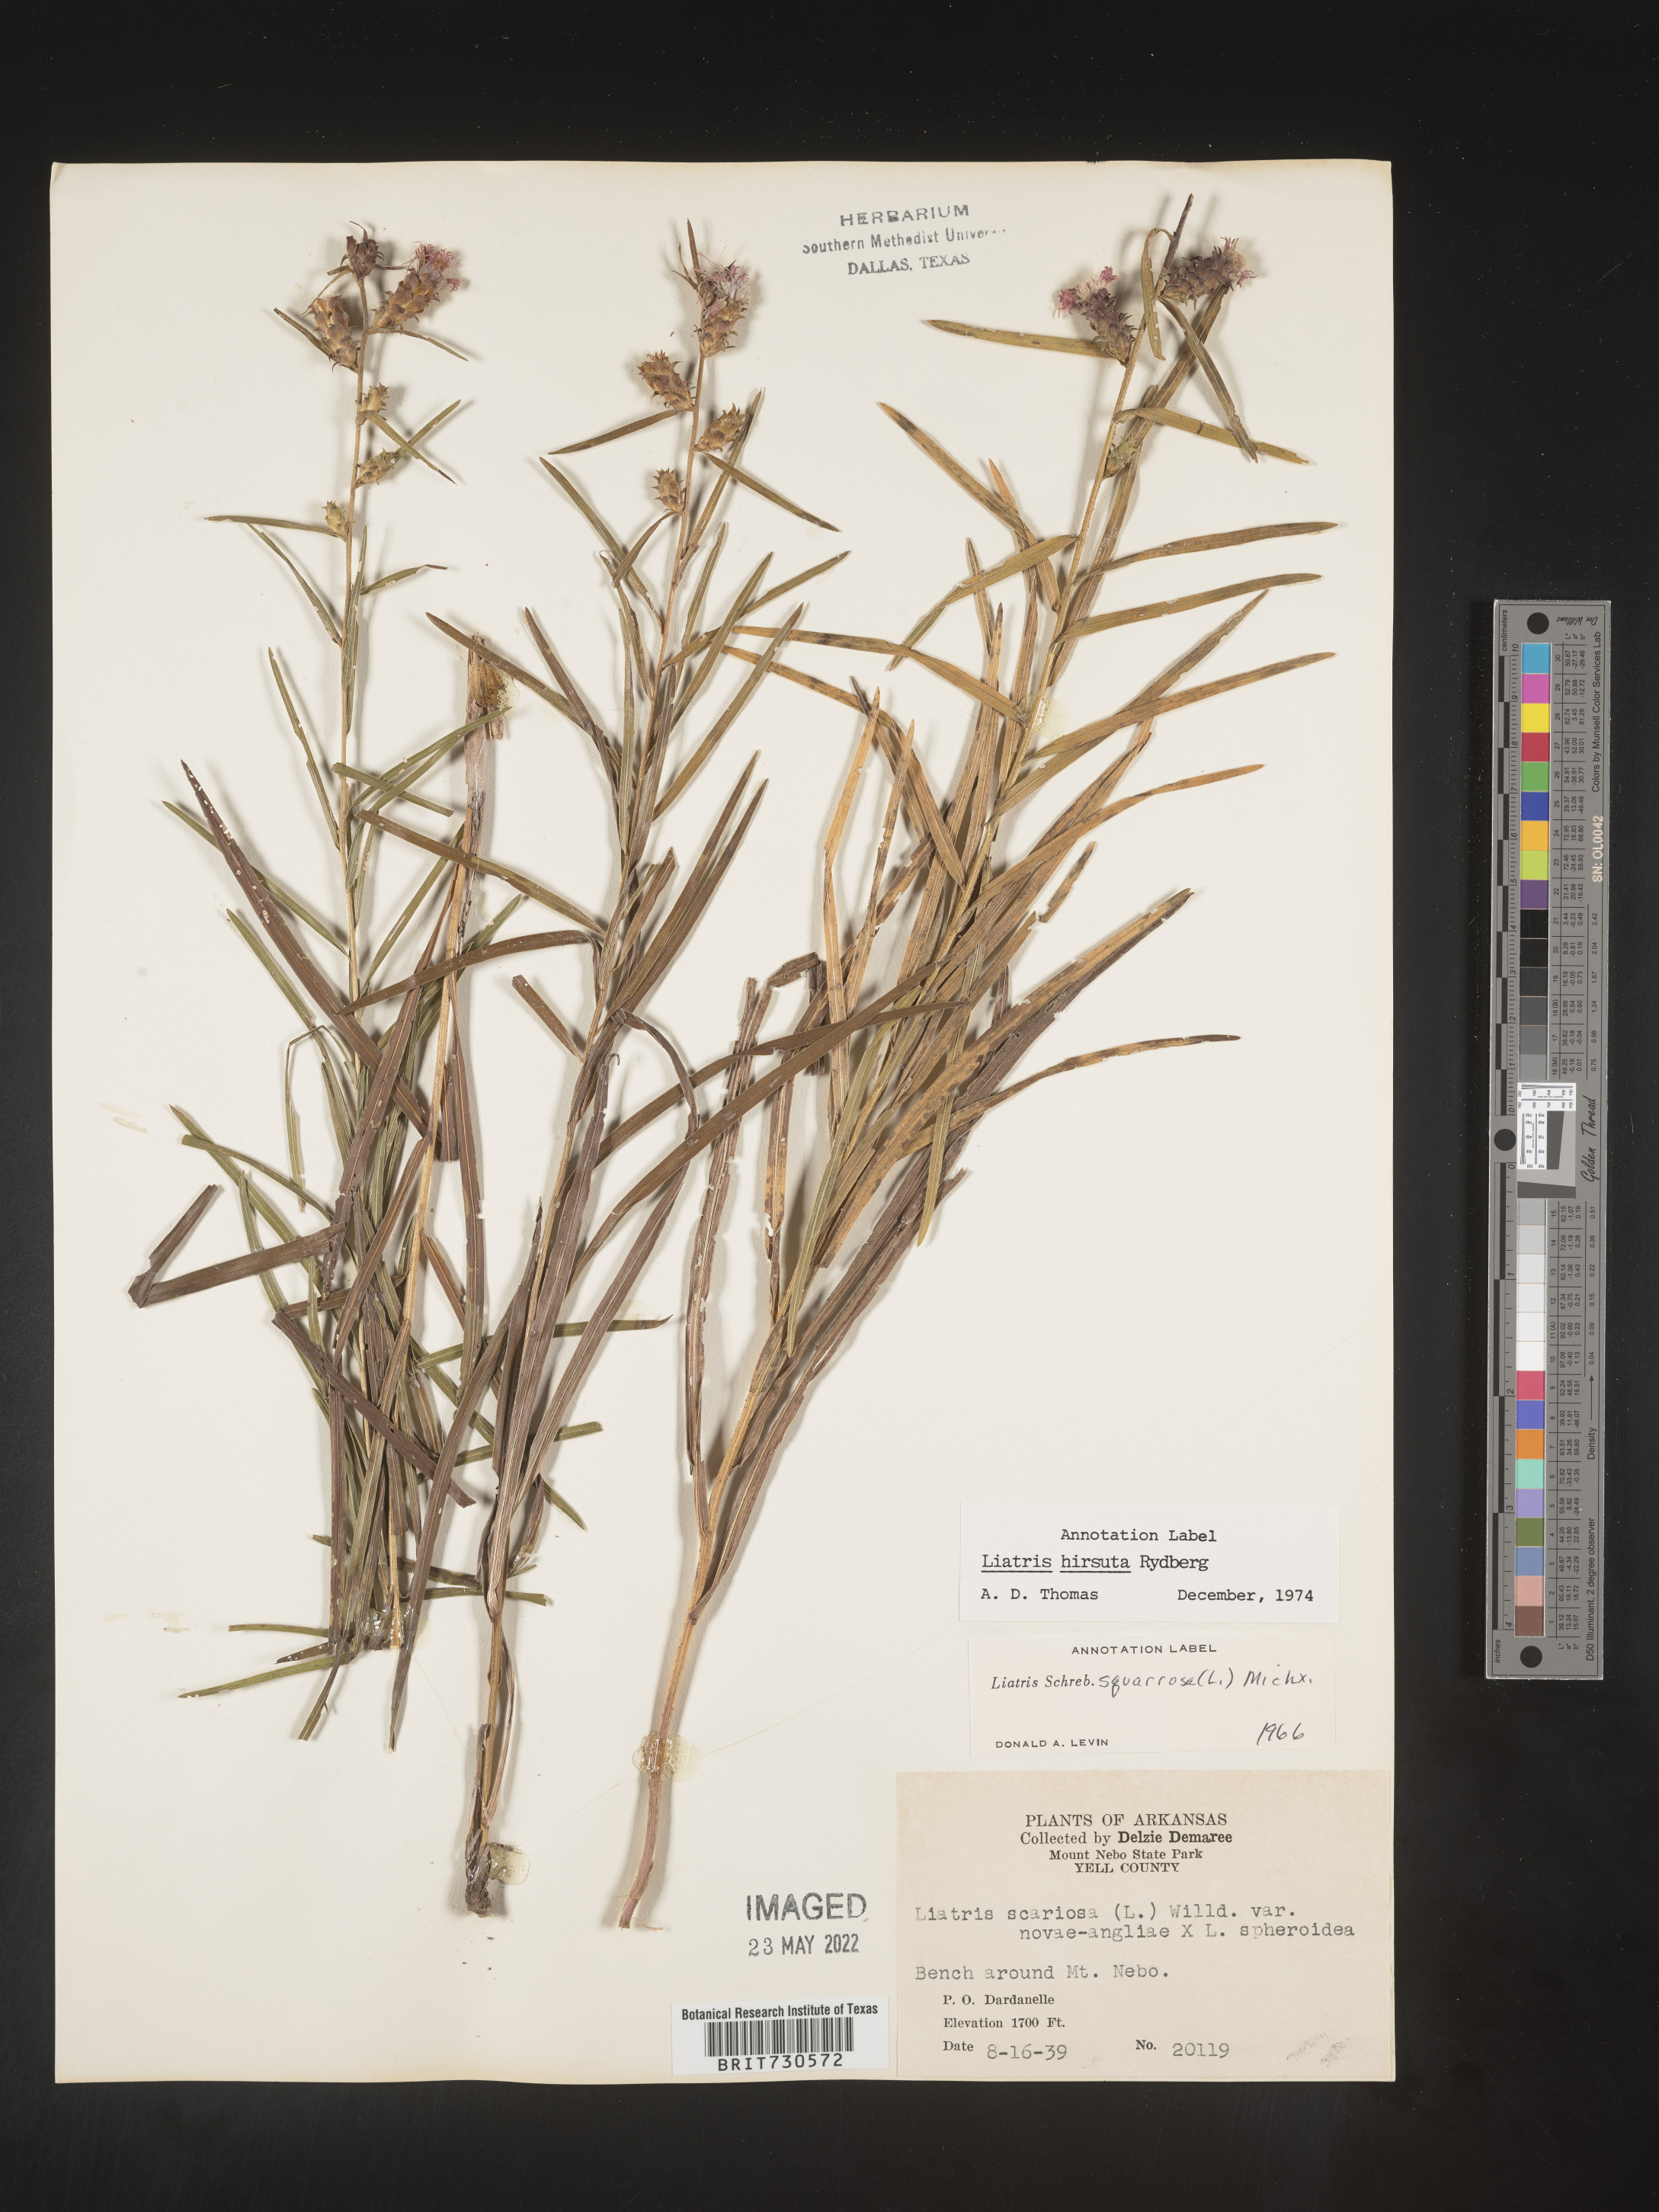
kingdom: Plantae
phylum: Tracheophyta
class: Magnoliopsida
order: Asterales
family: Asteraceae
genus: Liatris
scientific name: Liatris hirsuta
